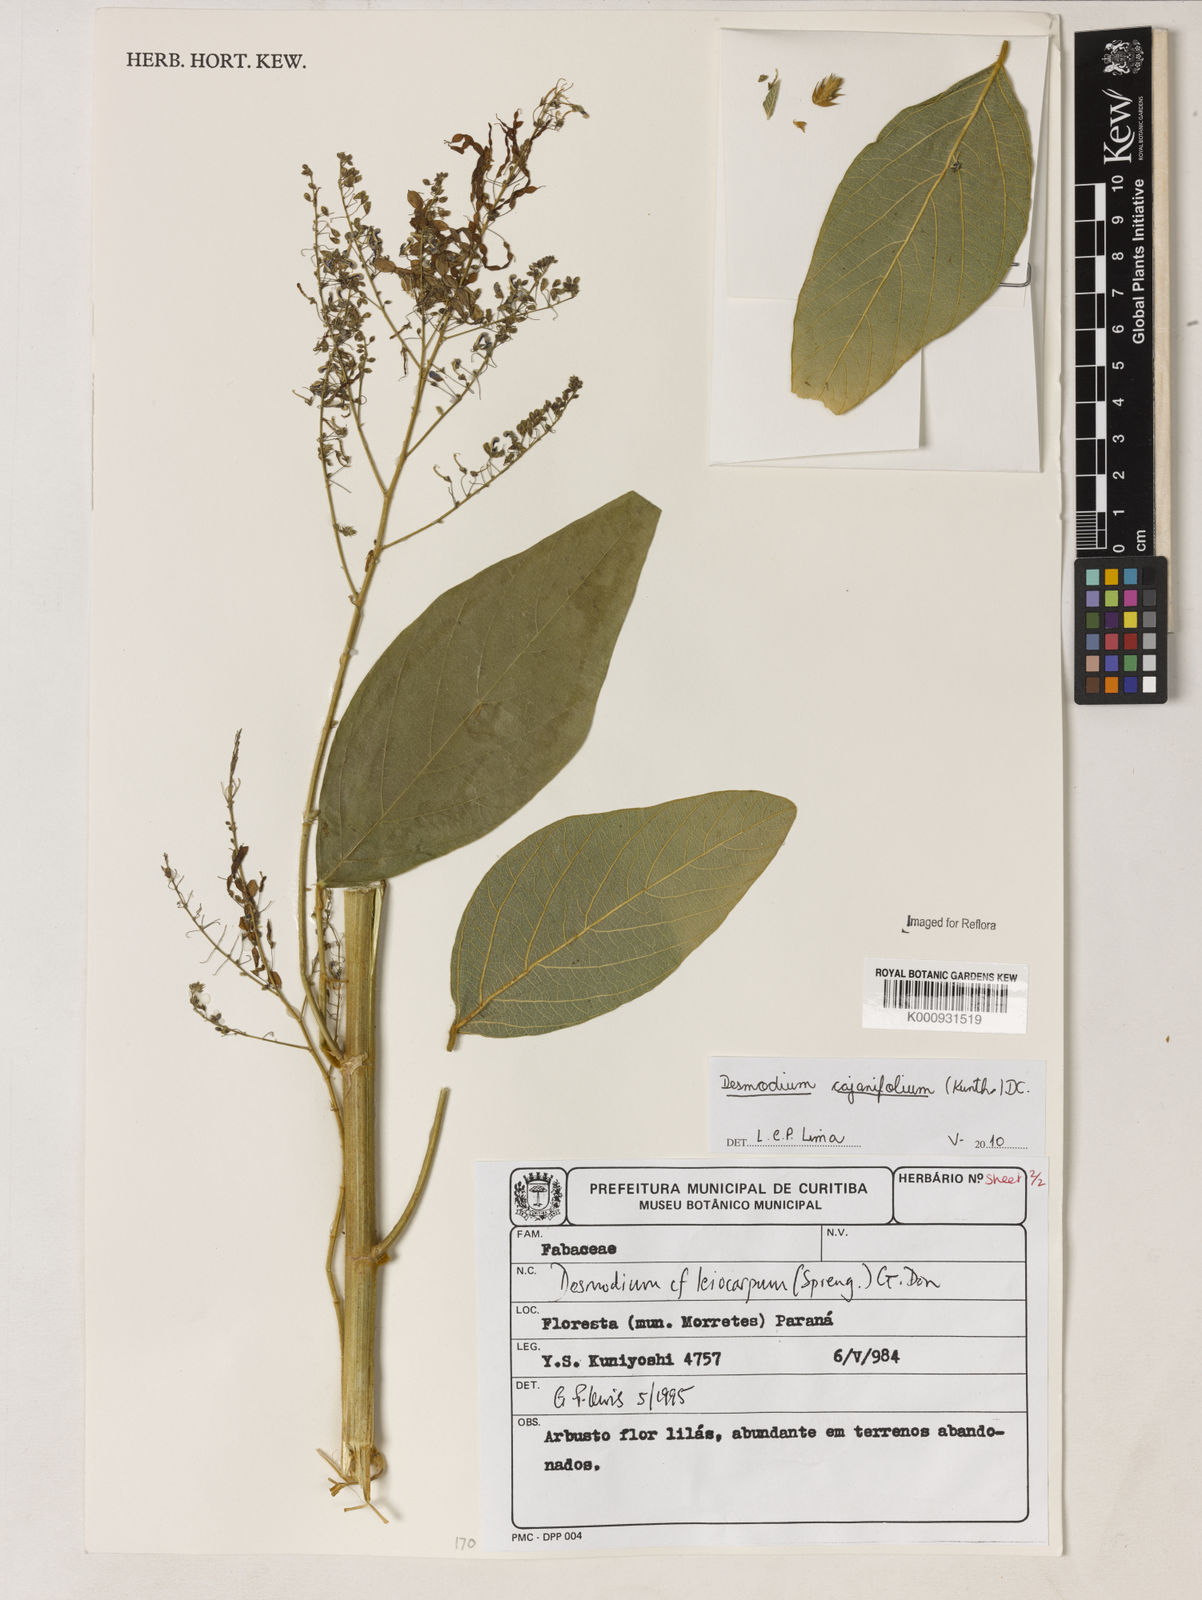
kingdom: Plantae
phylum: Tracheophyta
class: Magnoliopsida
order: Fabales
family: Fabaceae
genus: Desmodium
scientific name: Desmodium cajanifolium
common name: Tropical ticktrefoil
